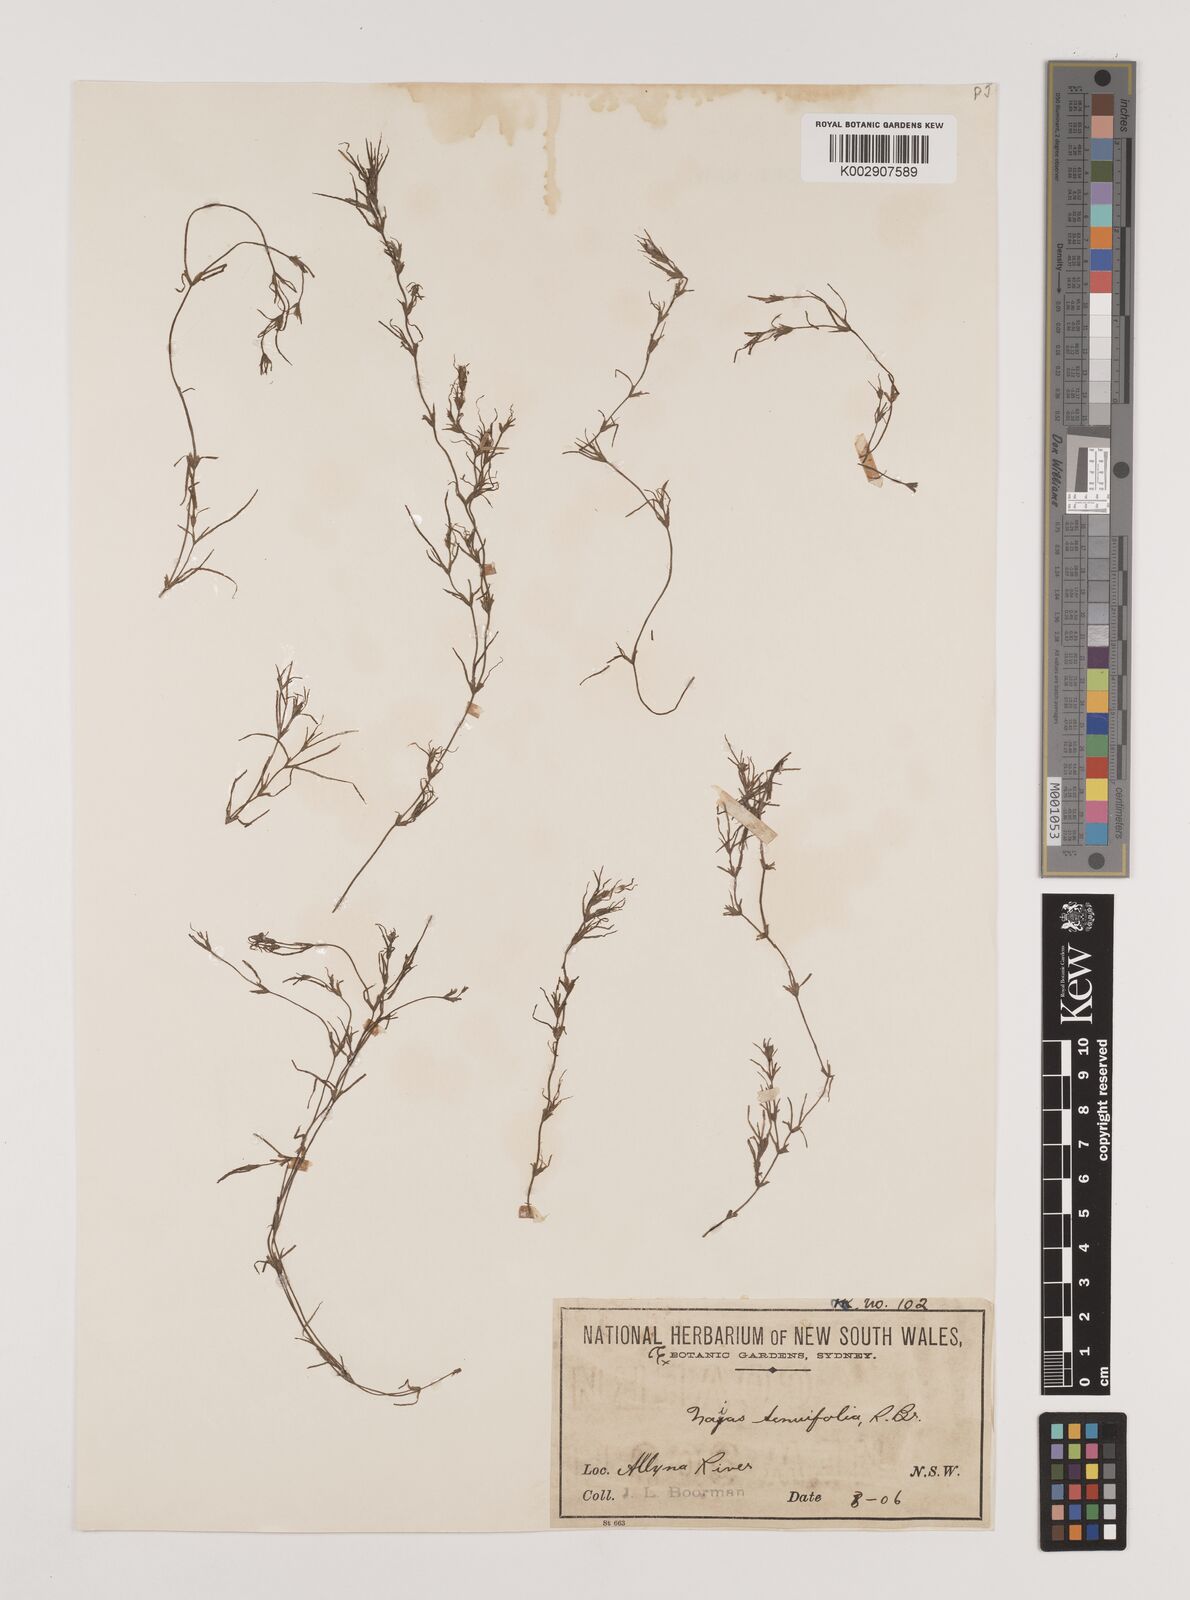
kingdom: Plantae
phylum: Tracheophyta
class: Liliopsida
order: Alismatales
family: Hydrocharitaceae
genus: Najas
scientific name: Najas tenuifolia
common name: Thin-leaved naiad
